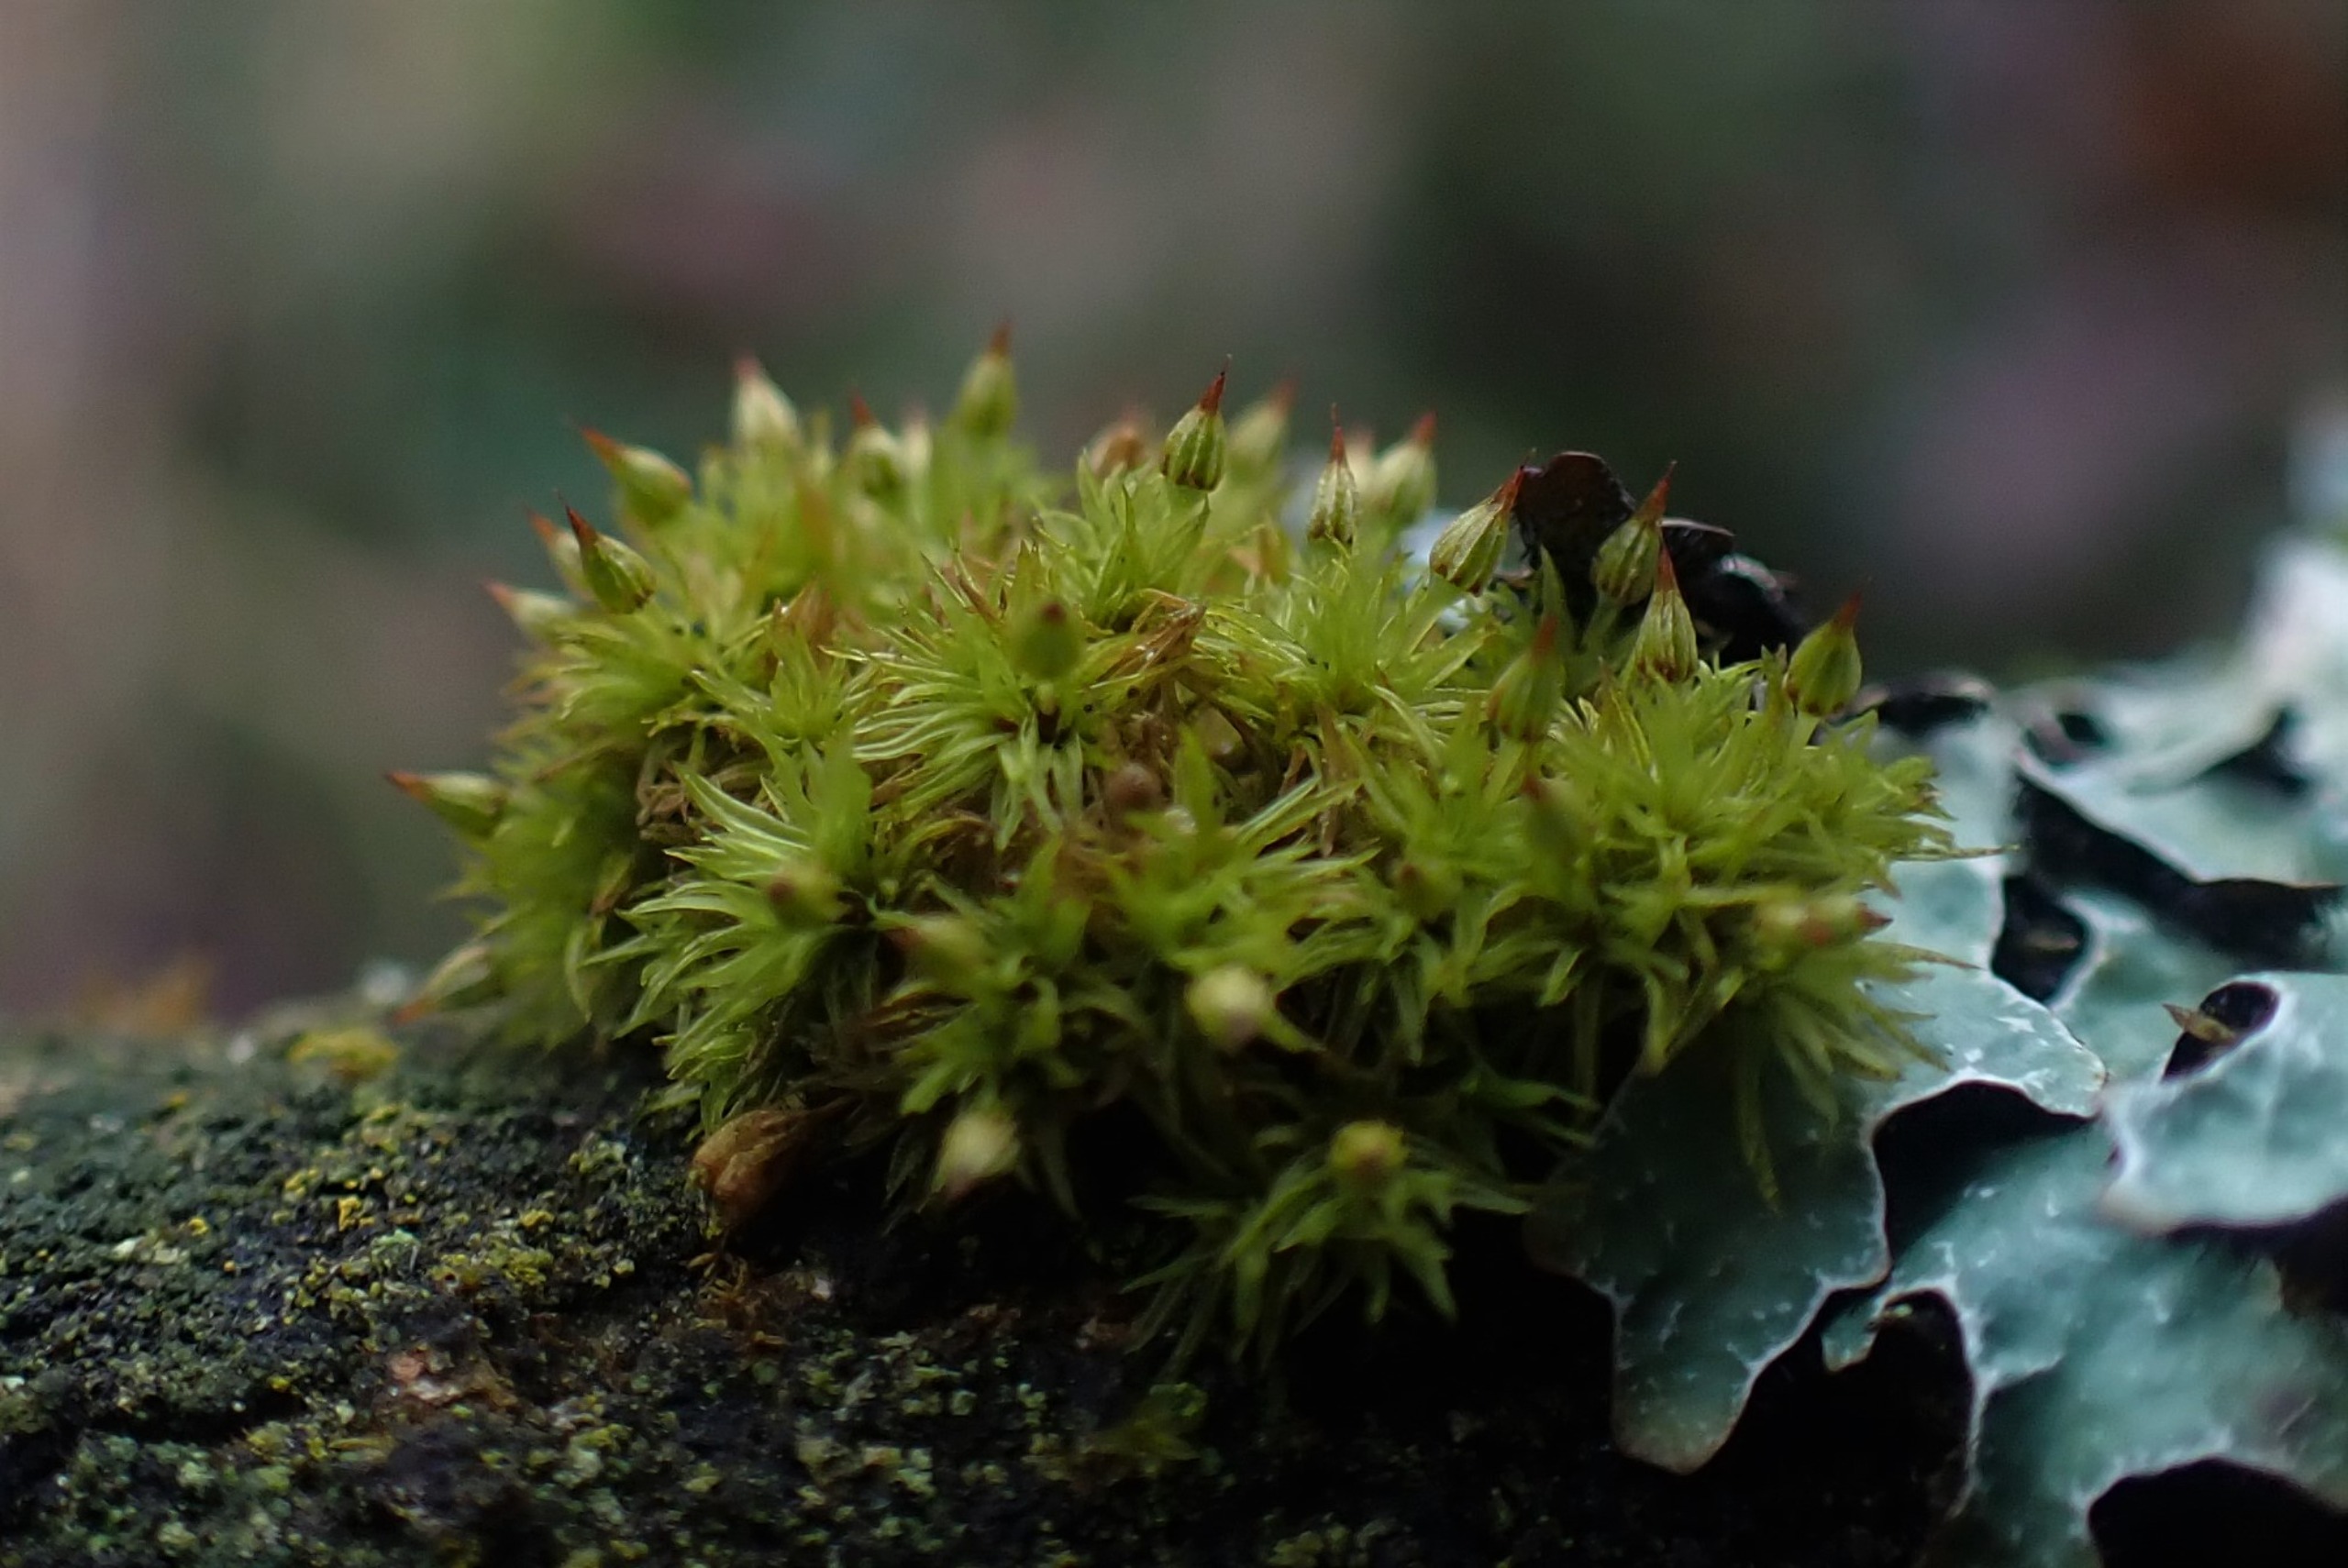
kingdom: Plantae
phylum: Bryophyta
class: Bryopsida
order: Orthotrichales
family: Orthotrichaceae
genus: Orthotrichum
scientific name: Orthotrichum pulchellum
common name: Smuk furehætte
